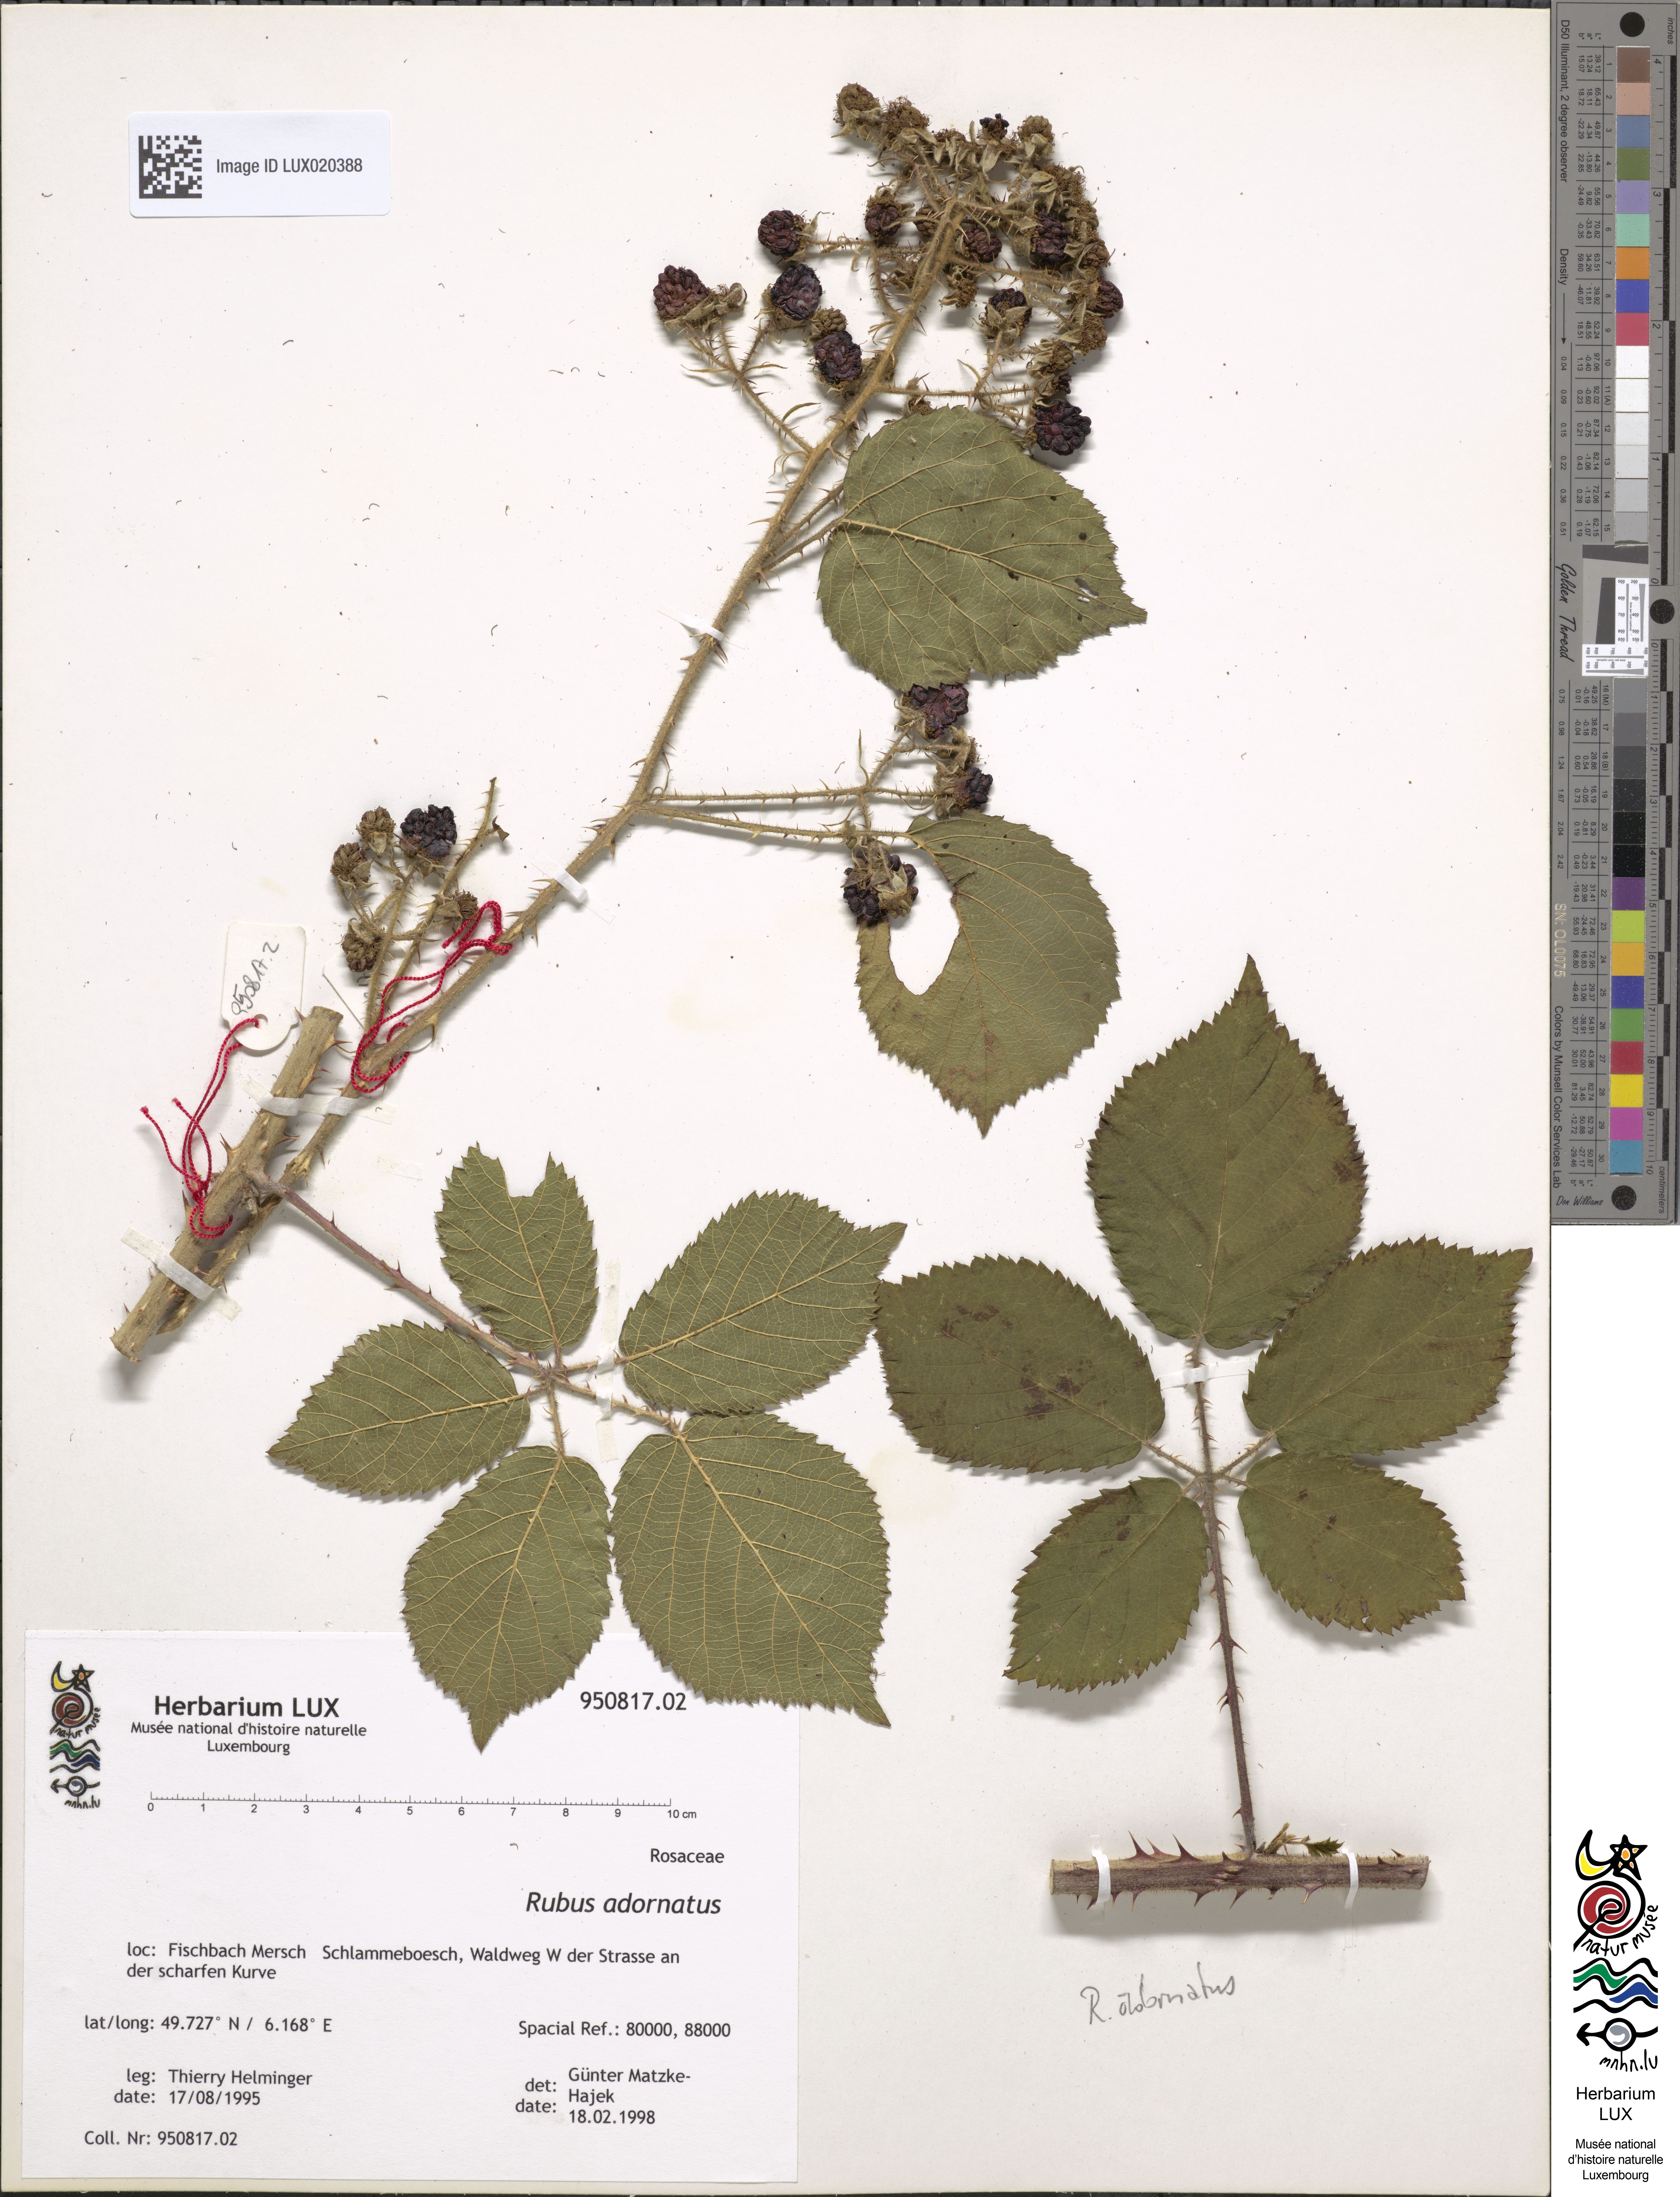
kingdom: Plantae
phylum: Tracheophyta
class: Magnoliopsida
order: Rosales
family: Rosaceae
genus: Rubus
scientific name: Rubus
